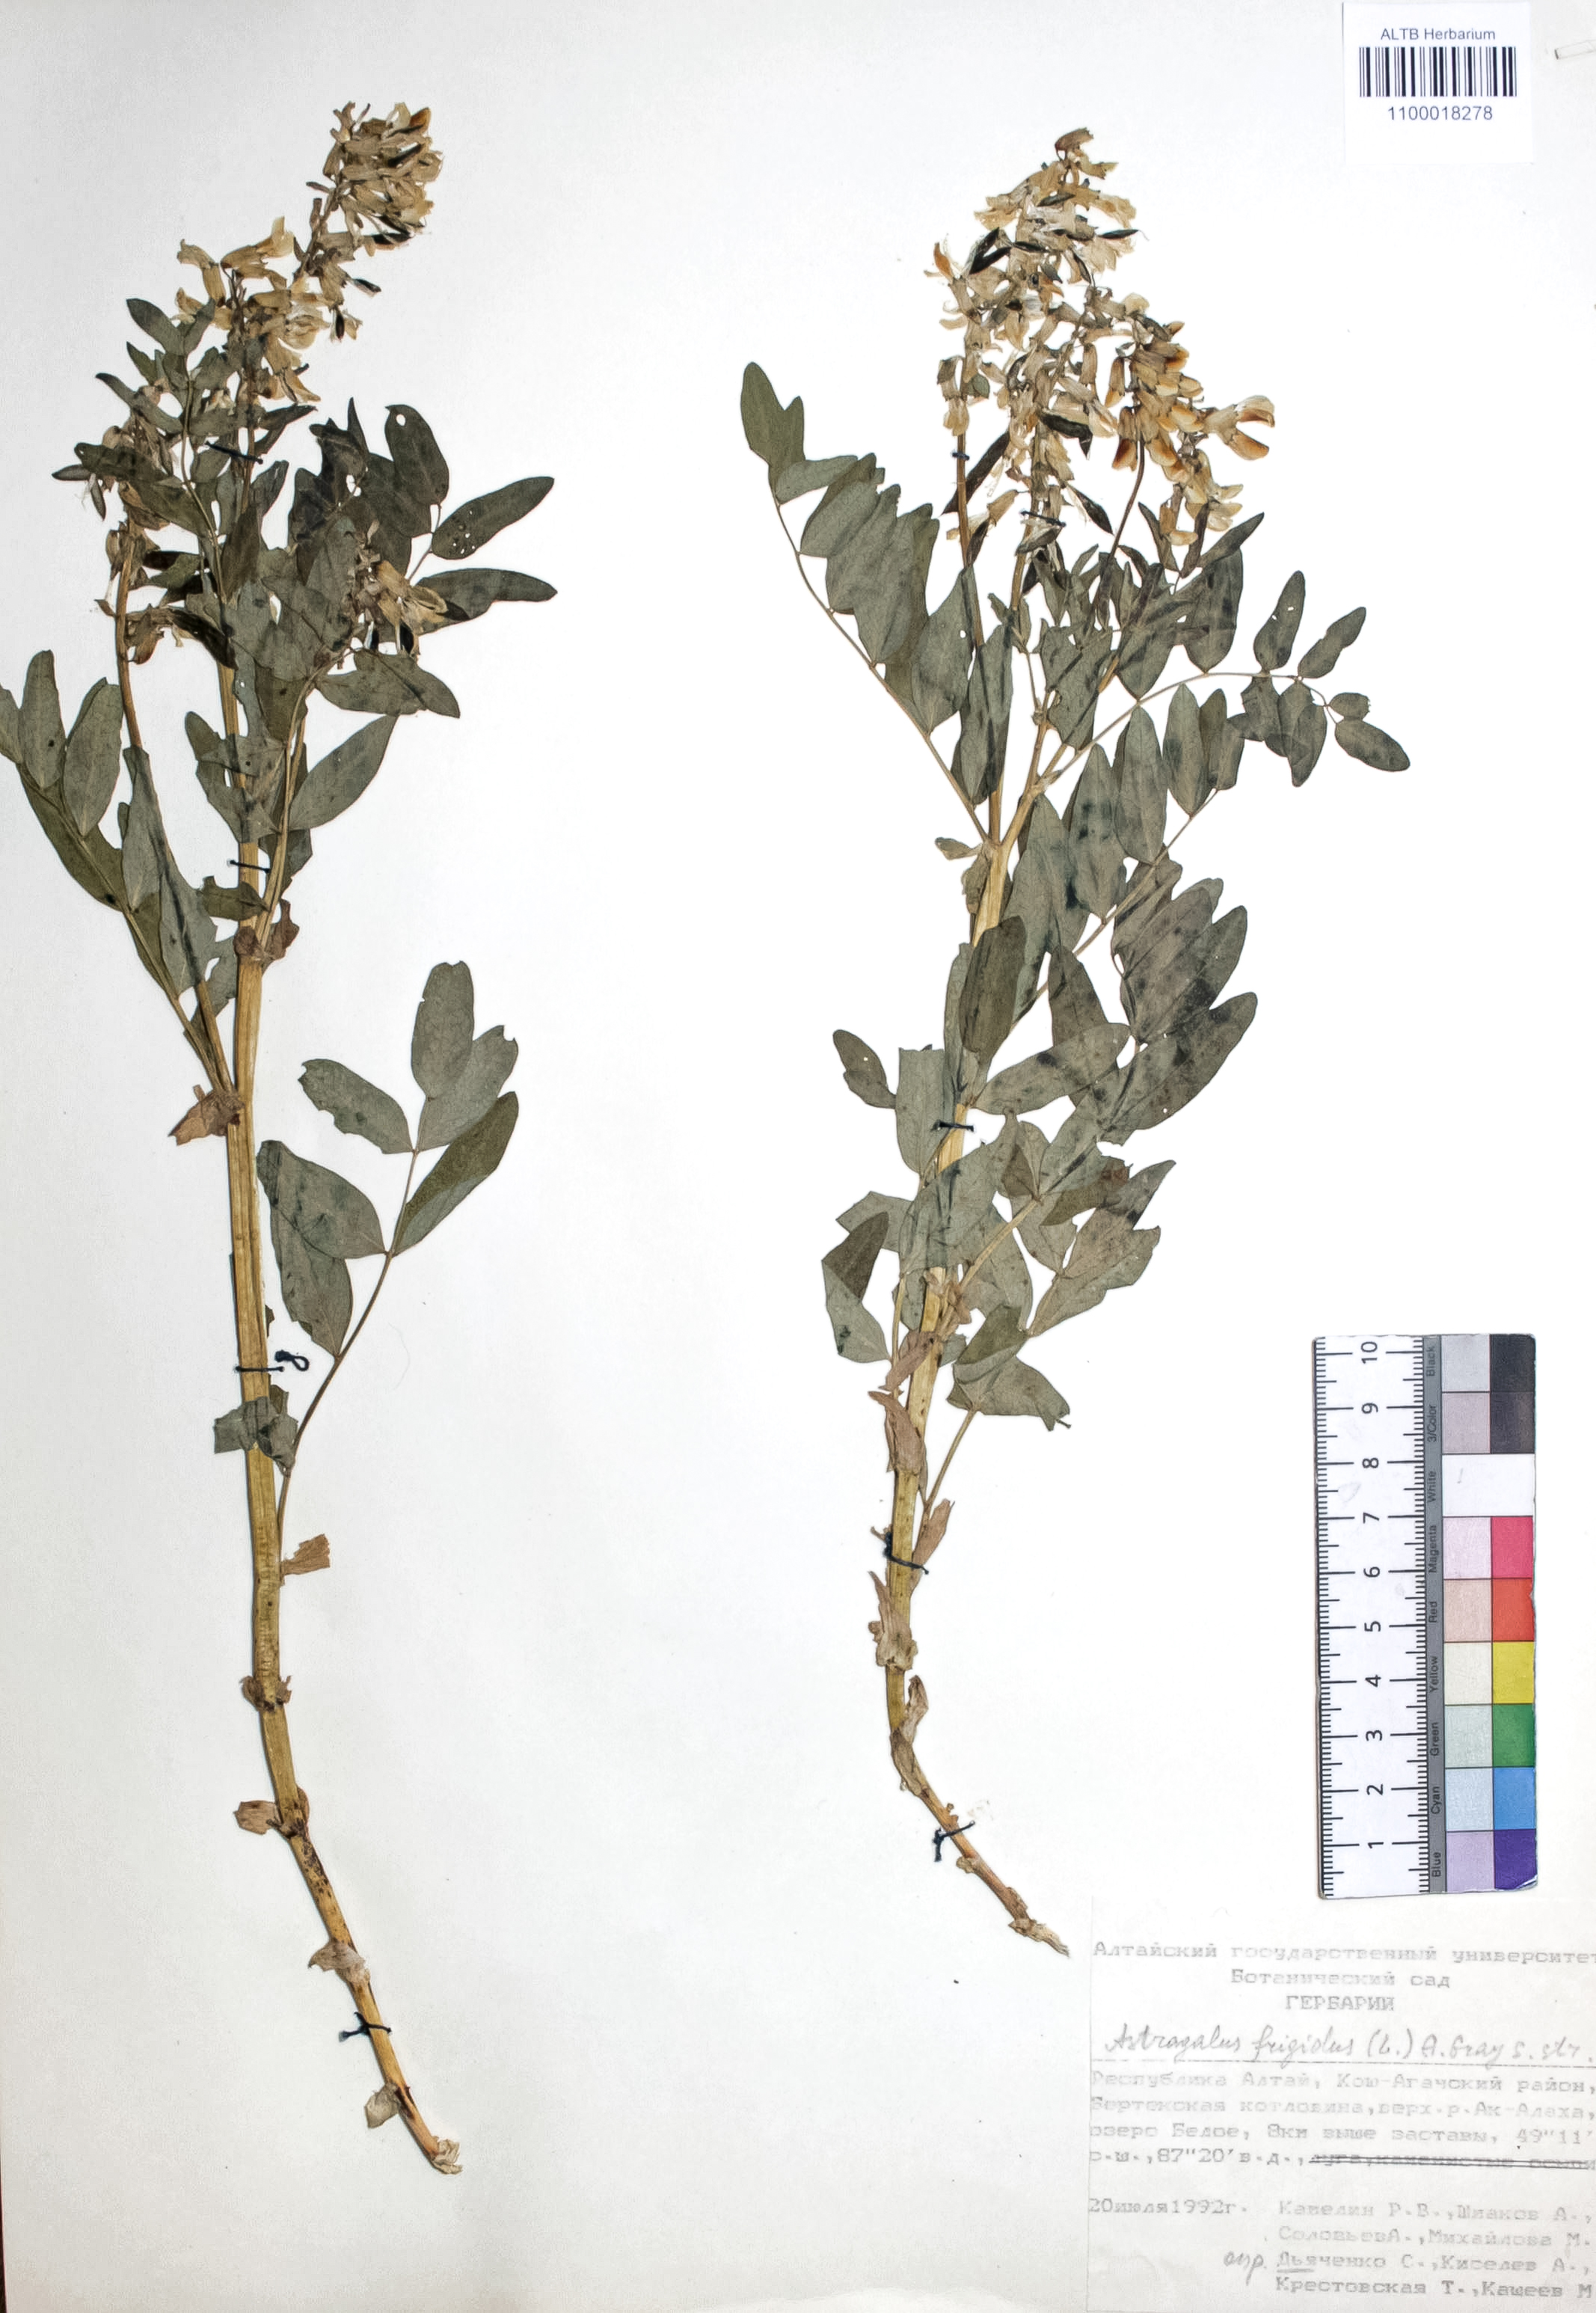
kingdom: Plantae
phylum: Tracheophyta
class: Magnoliopsida
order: Fabales
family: Fabaceae
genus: Astragalus
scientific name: Astragalus frigidus
